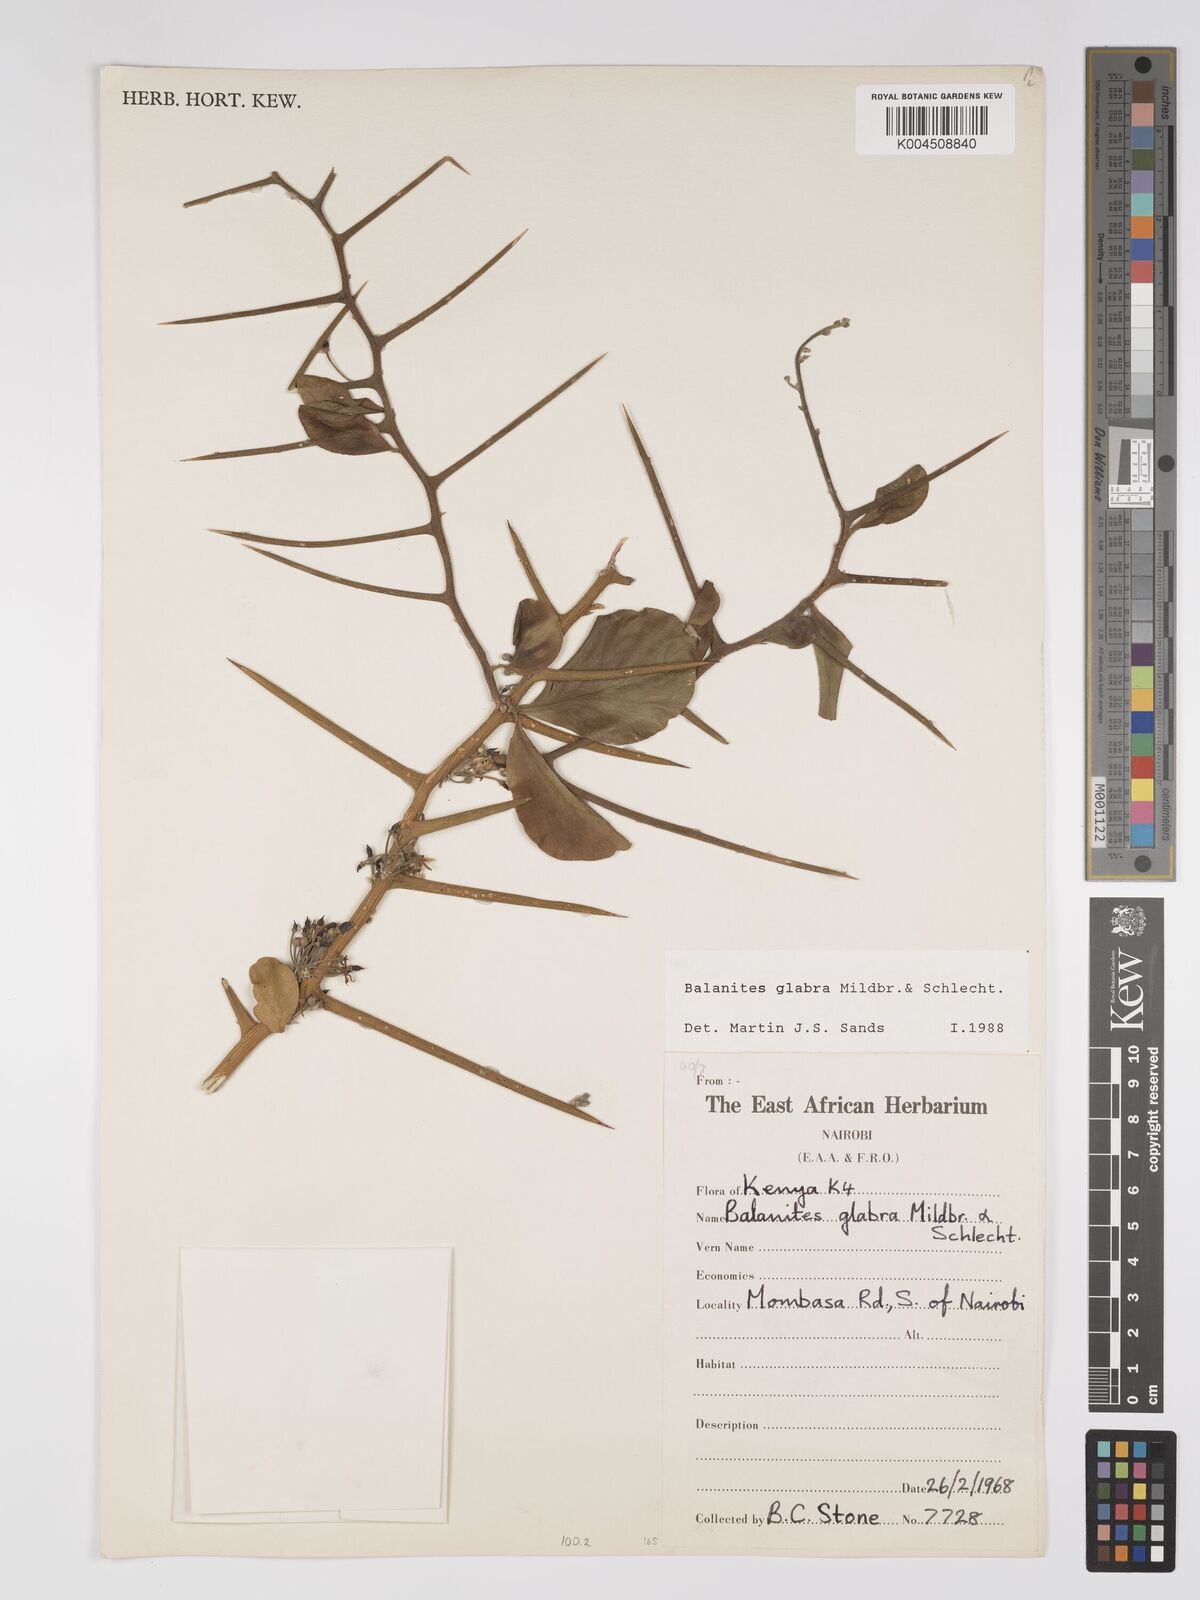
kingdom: Plantae
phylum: Tracheophyta
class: Magnoliopsida
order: Zygophyllales
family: Zygophyllaceae
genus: Balanites
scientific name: Balanites glabra
